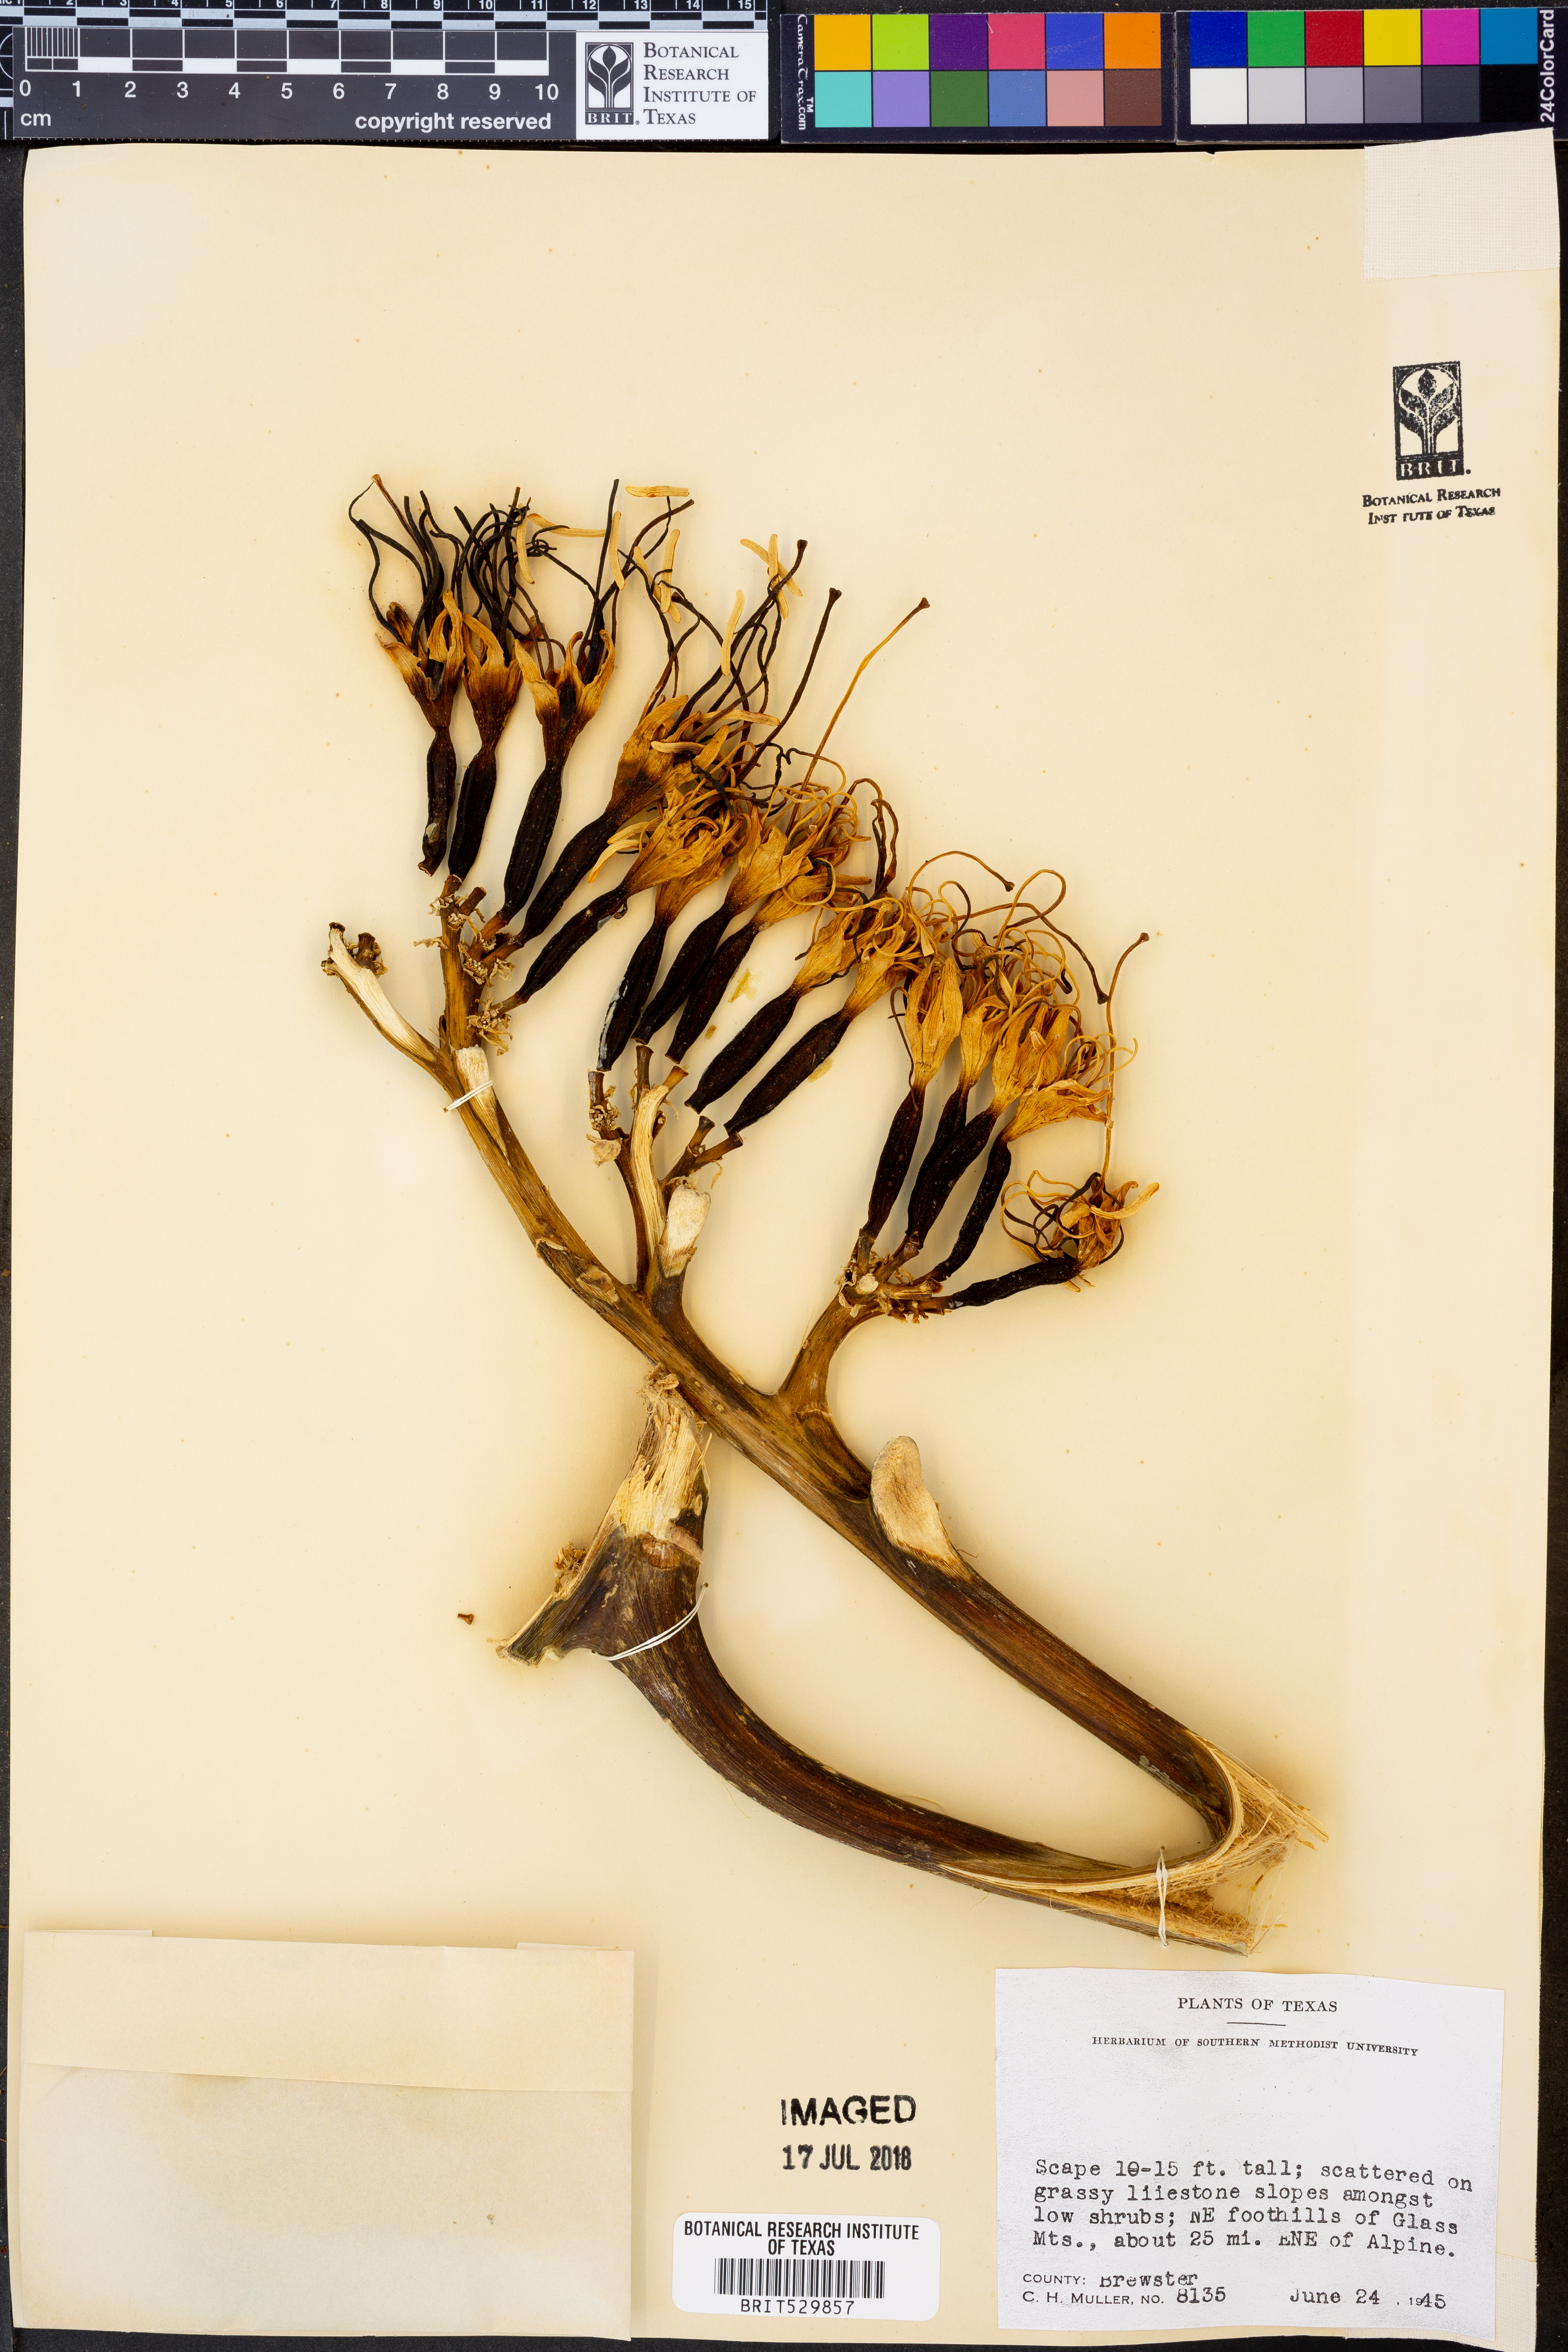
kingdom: Plantae
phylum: Tracheophyta
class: Liliopsida
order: Asparagales
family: Asparagaceae
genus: Agave
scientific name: Agave
